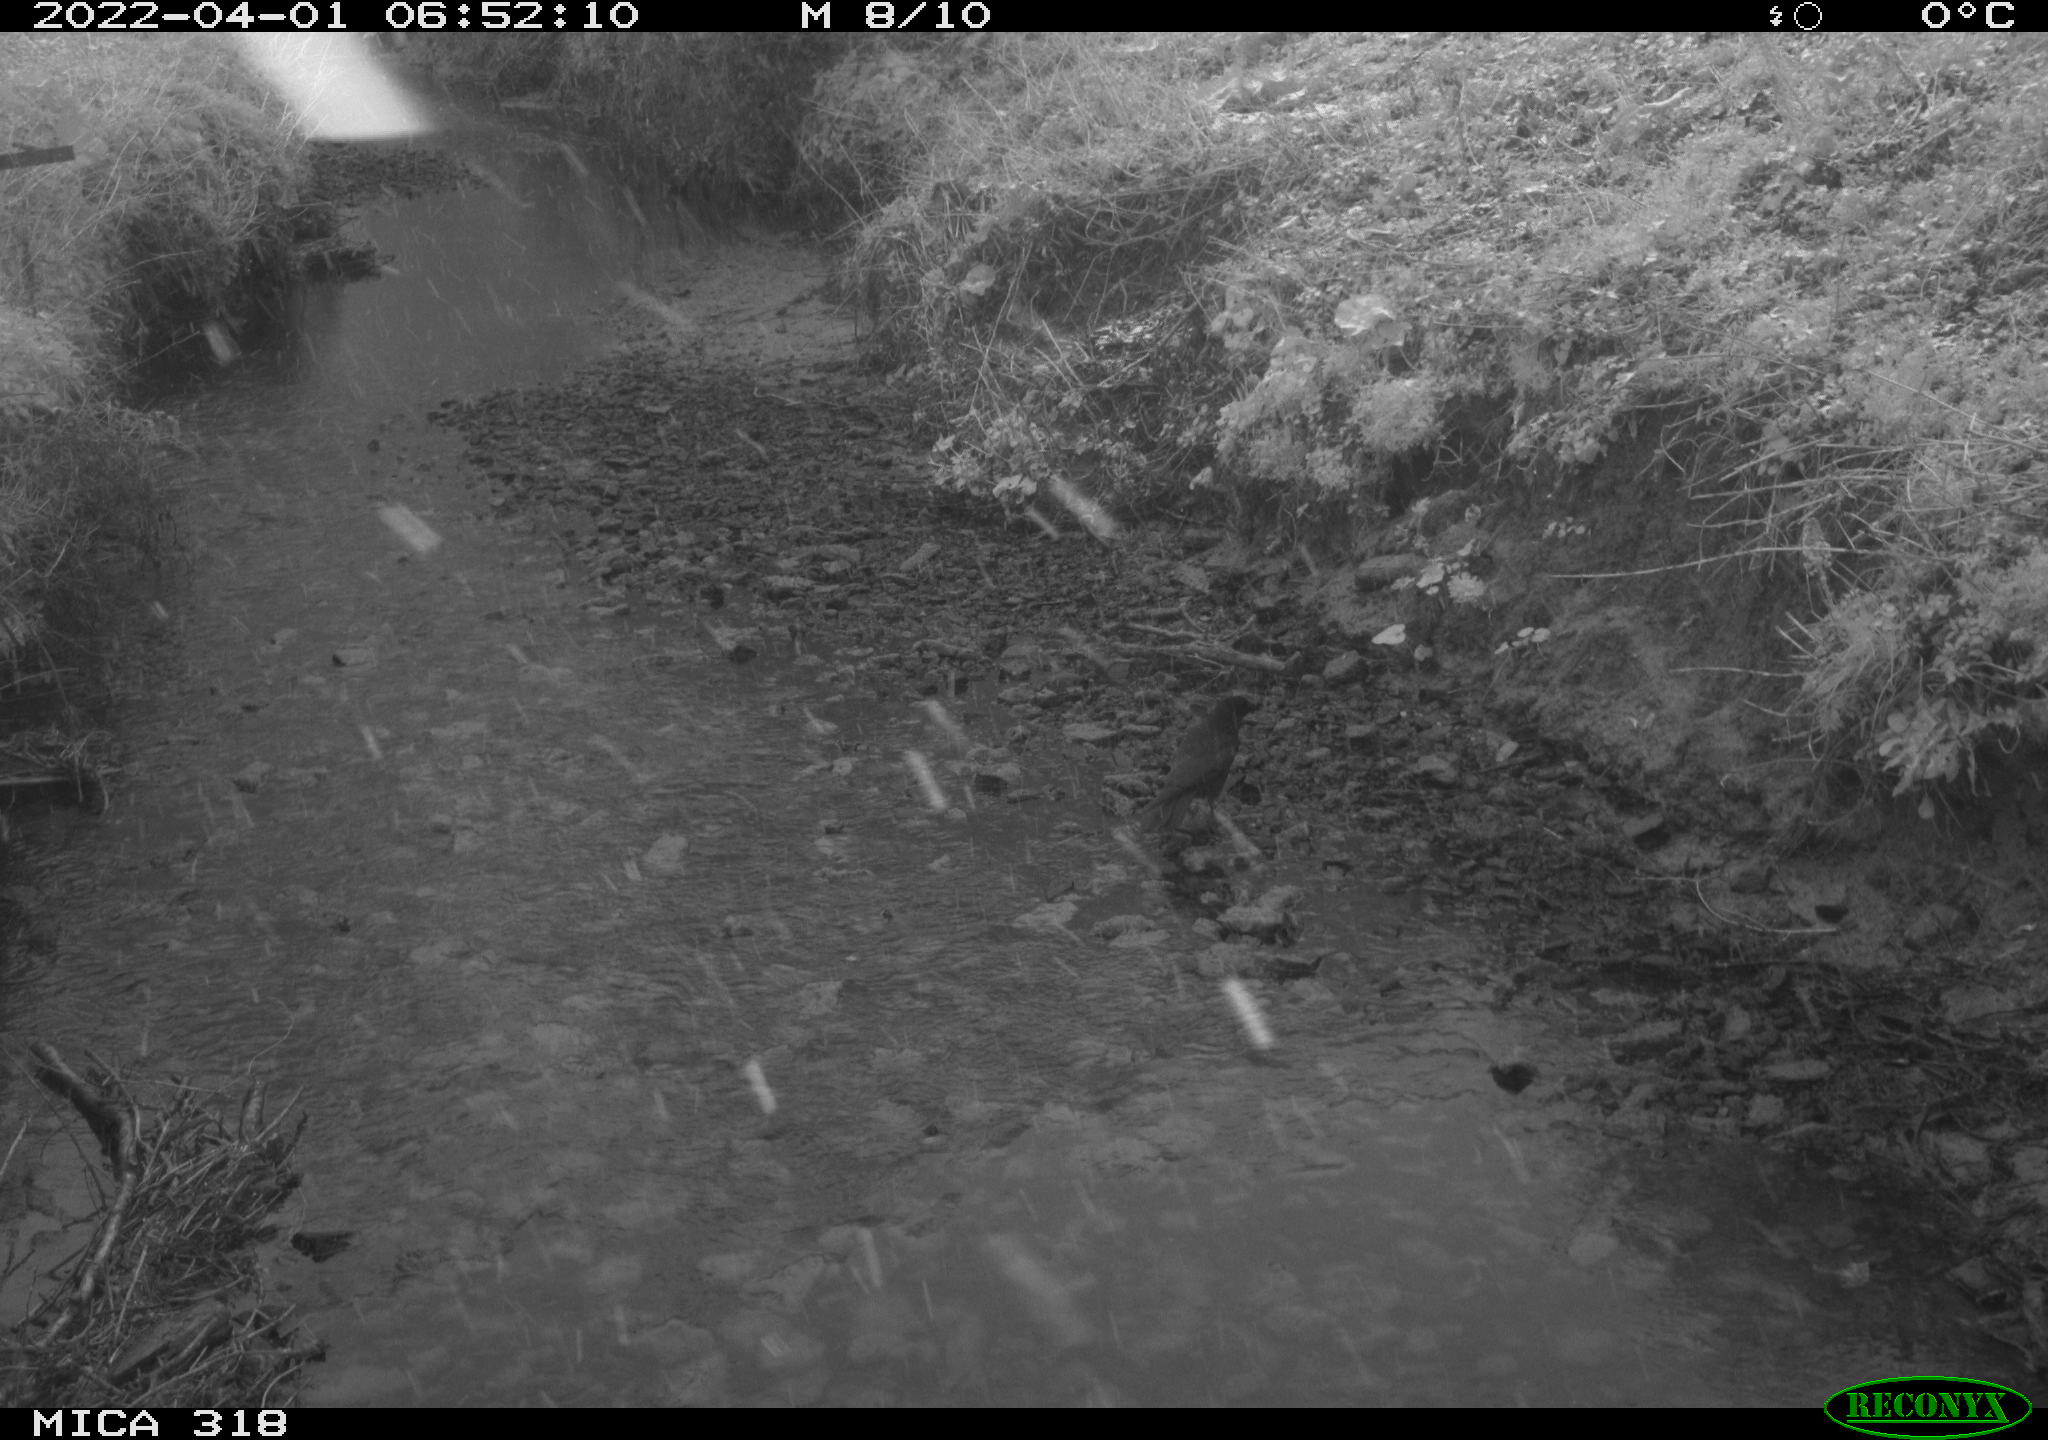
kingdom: Animalia
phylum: Chordata
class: Aves
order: Passeriformes
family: Corvidae
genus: Corvus
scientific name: Corvus corone
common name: Carrion crow
